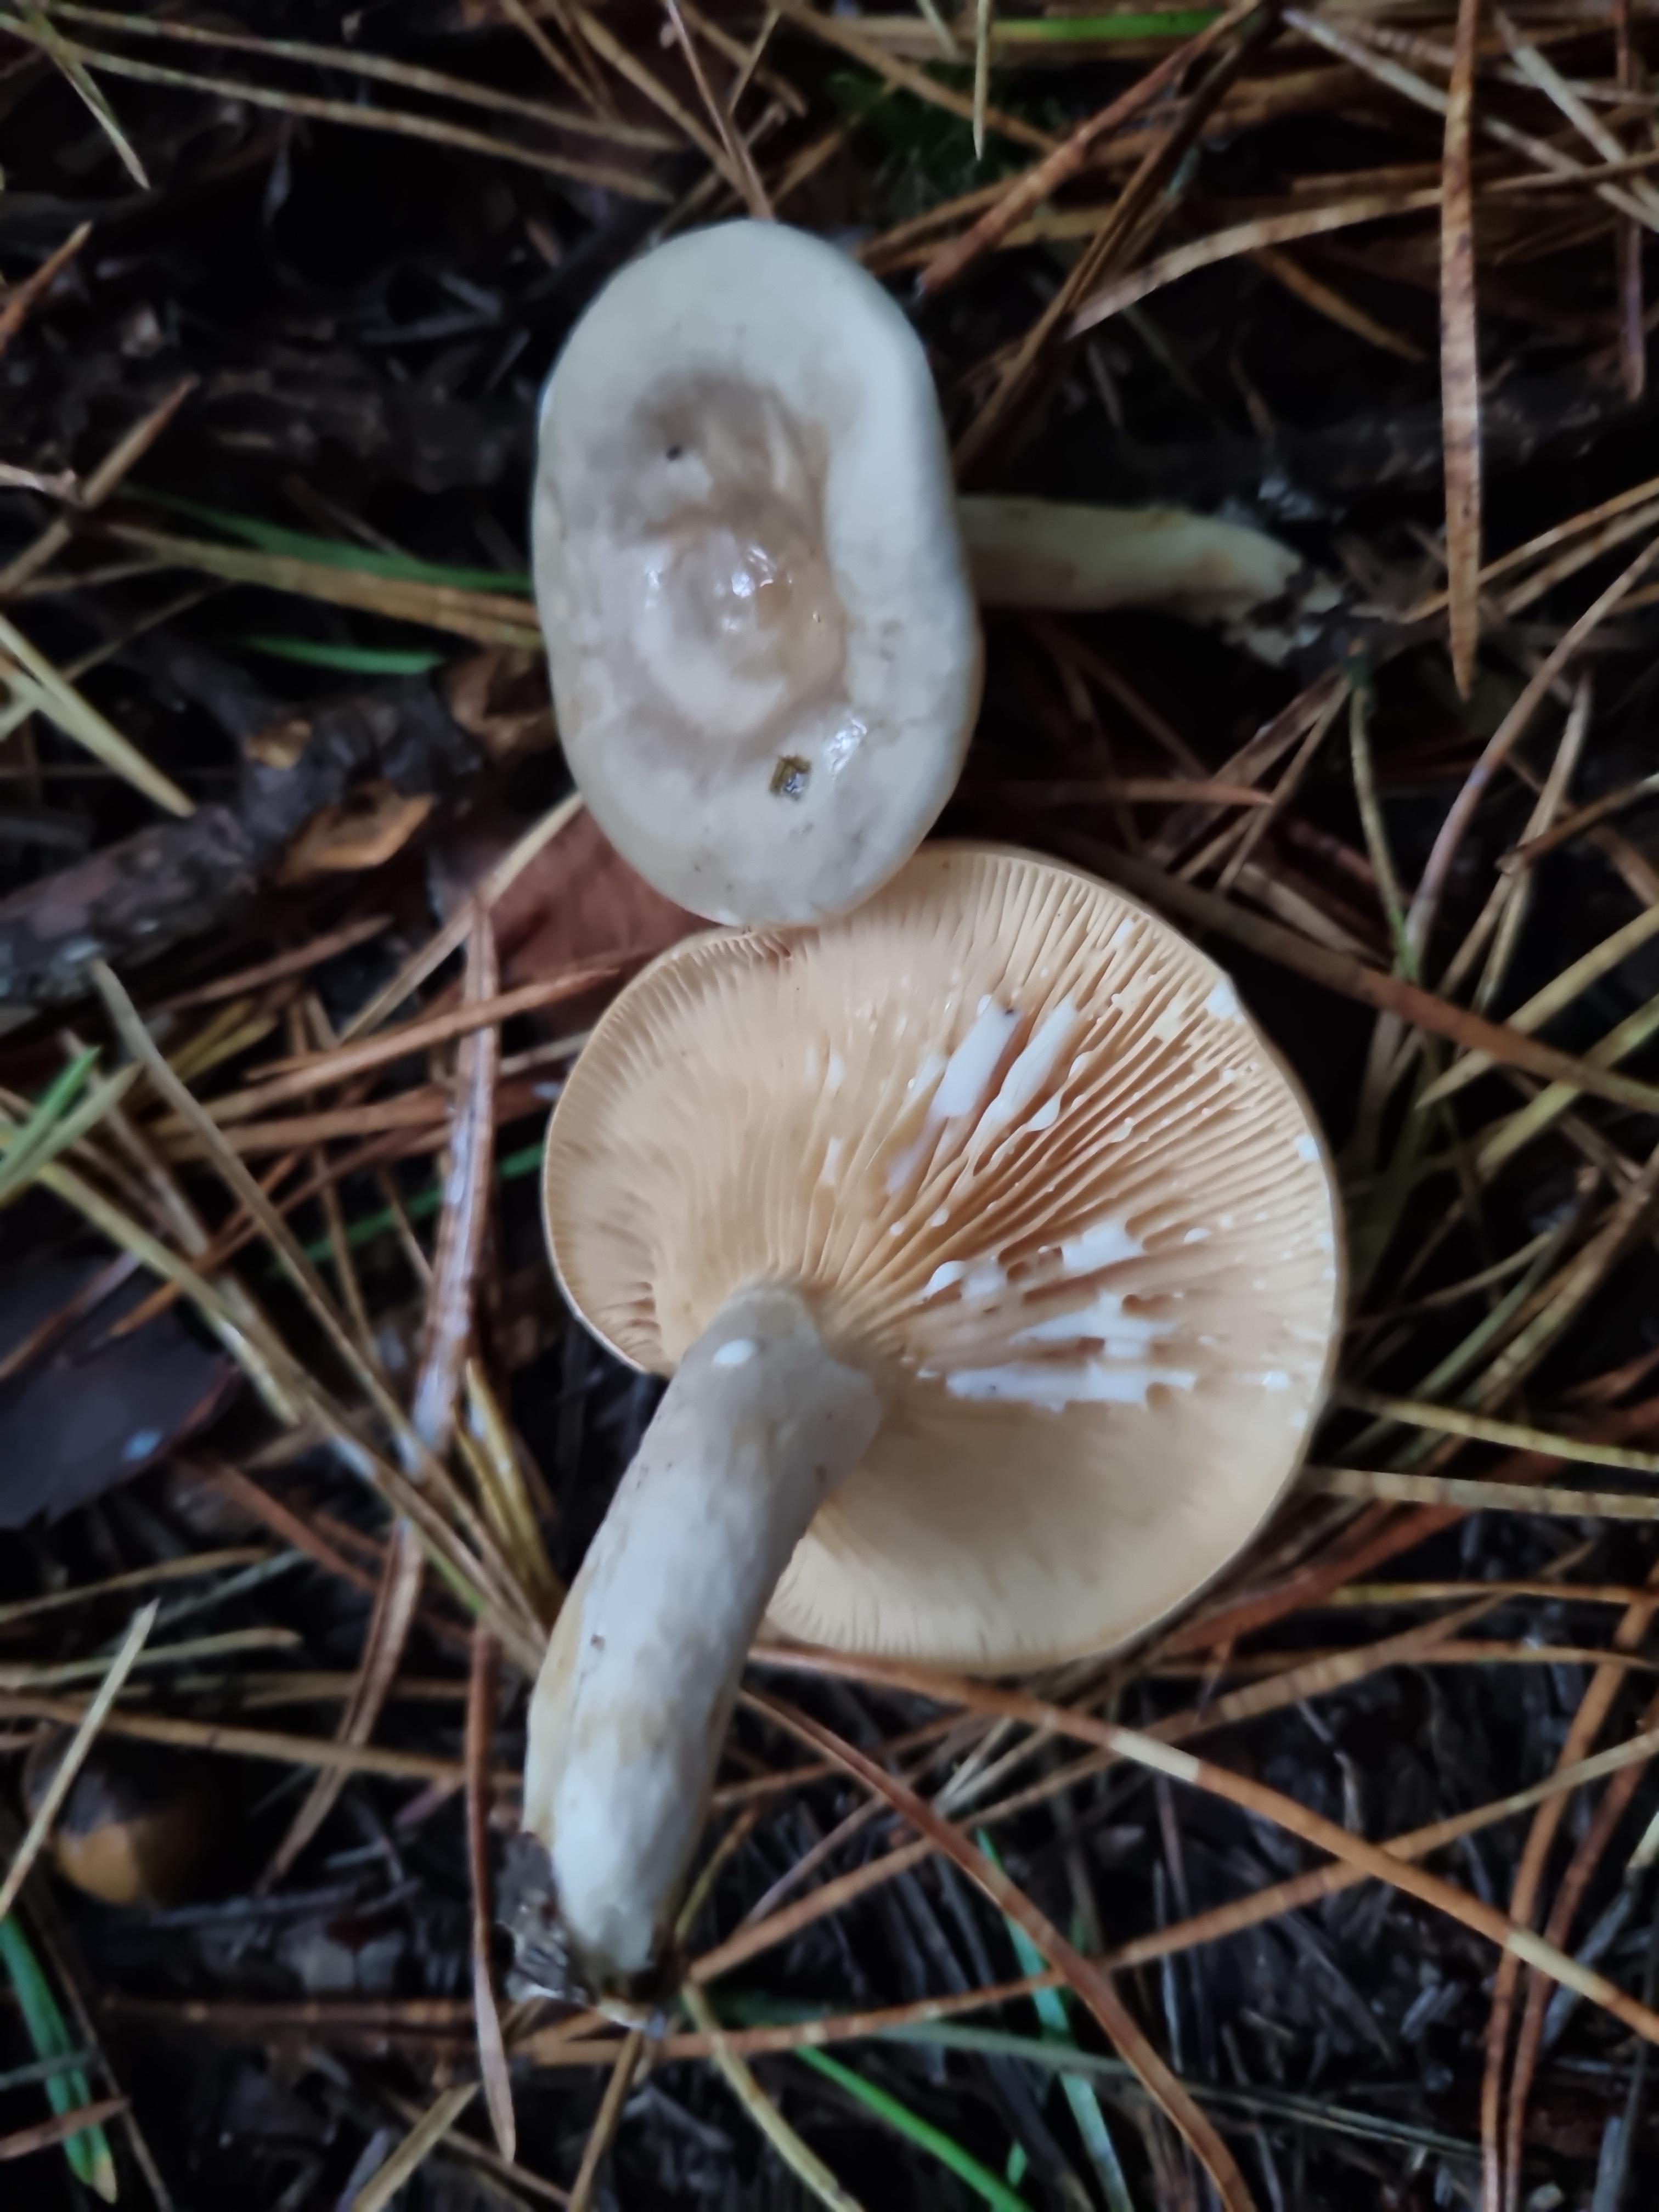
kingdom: Fungi
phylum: Basidiomycota
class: Agaricomycetes
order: Russulales
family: Russulaceae
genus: Lactarius
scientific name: Lactarius pyrogalus
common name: hassel-mælkehat
